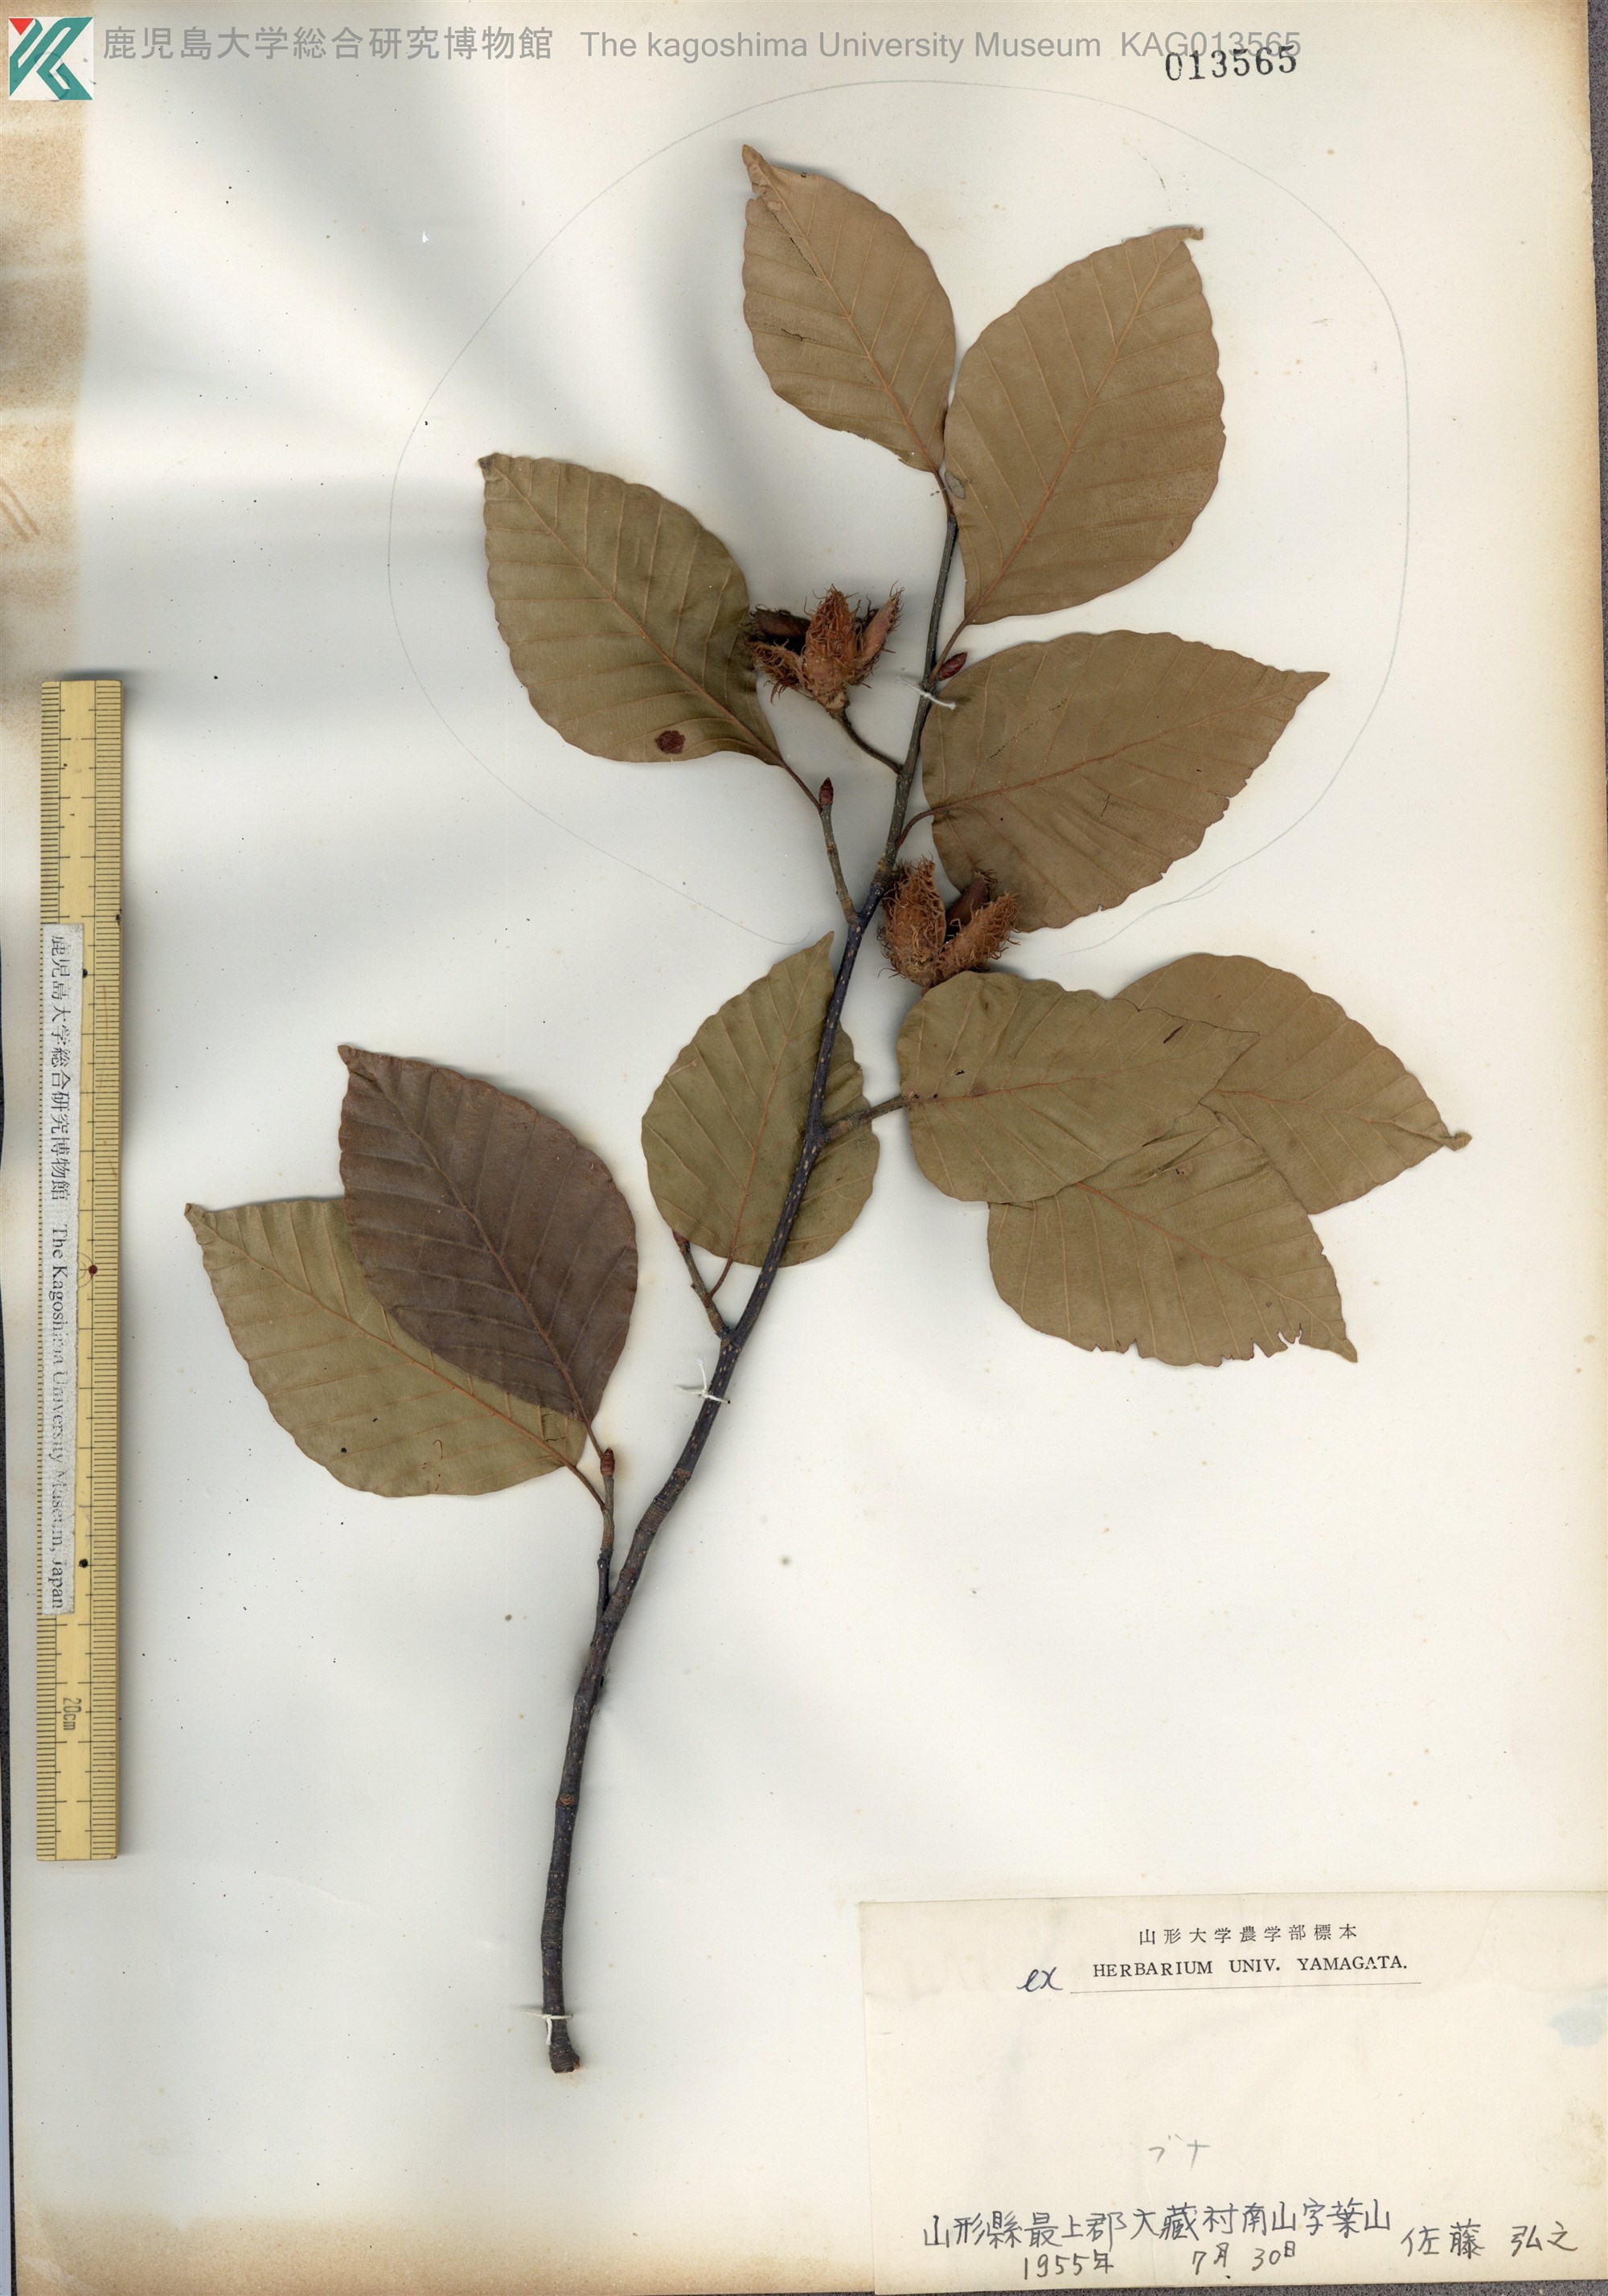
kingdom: Plantae
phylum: Tracheophyta
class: Magnoliopsida
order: Fagales
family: Fagaceae
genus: Fagus
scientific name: Fagus crenata
